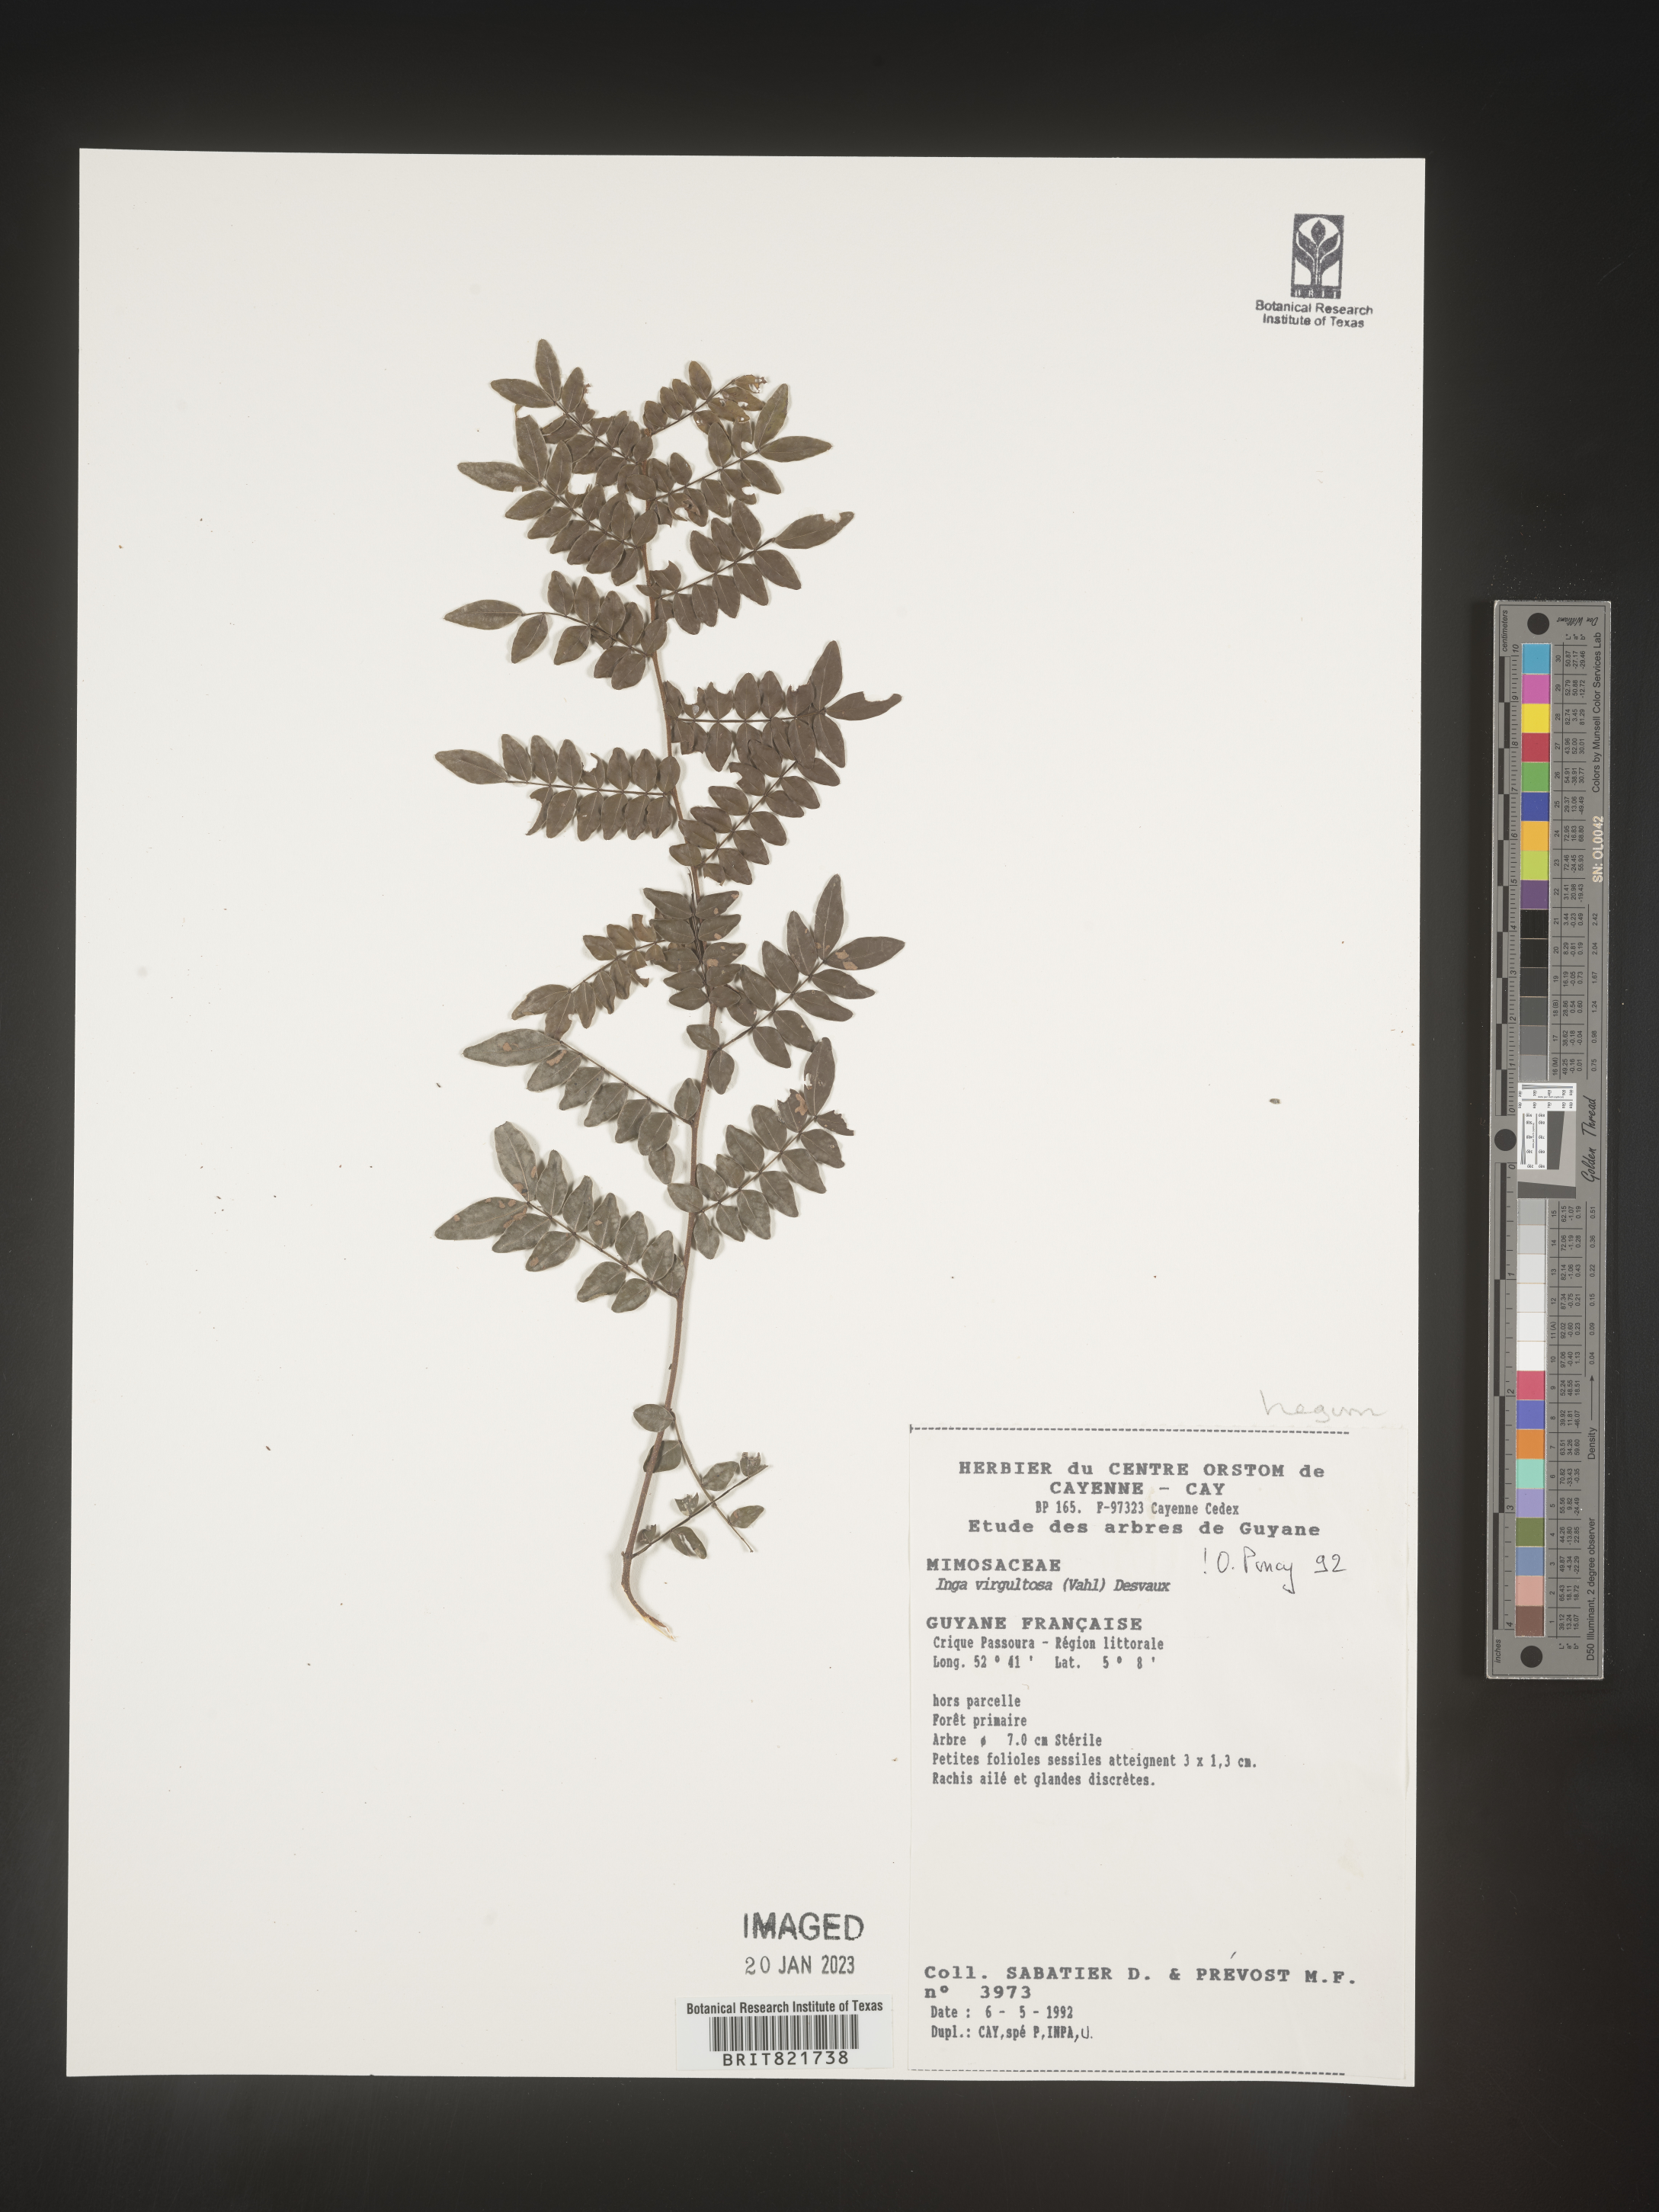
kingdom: Plantae
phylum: Tracheophyta
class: Magnoliopsida
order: Fabales
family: Fabaceae
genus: Inga
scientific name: Inga
